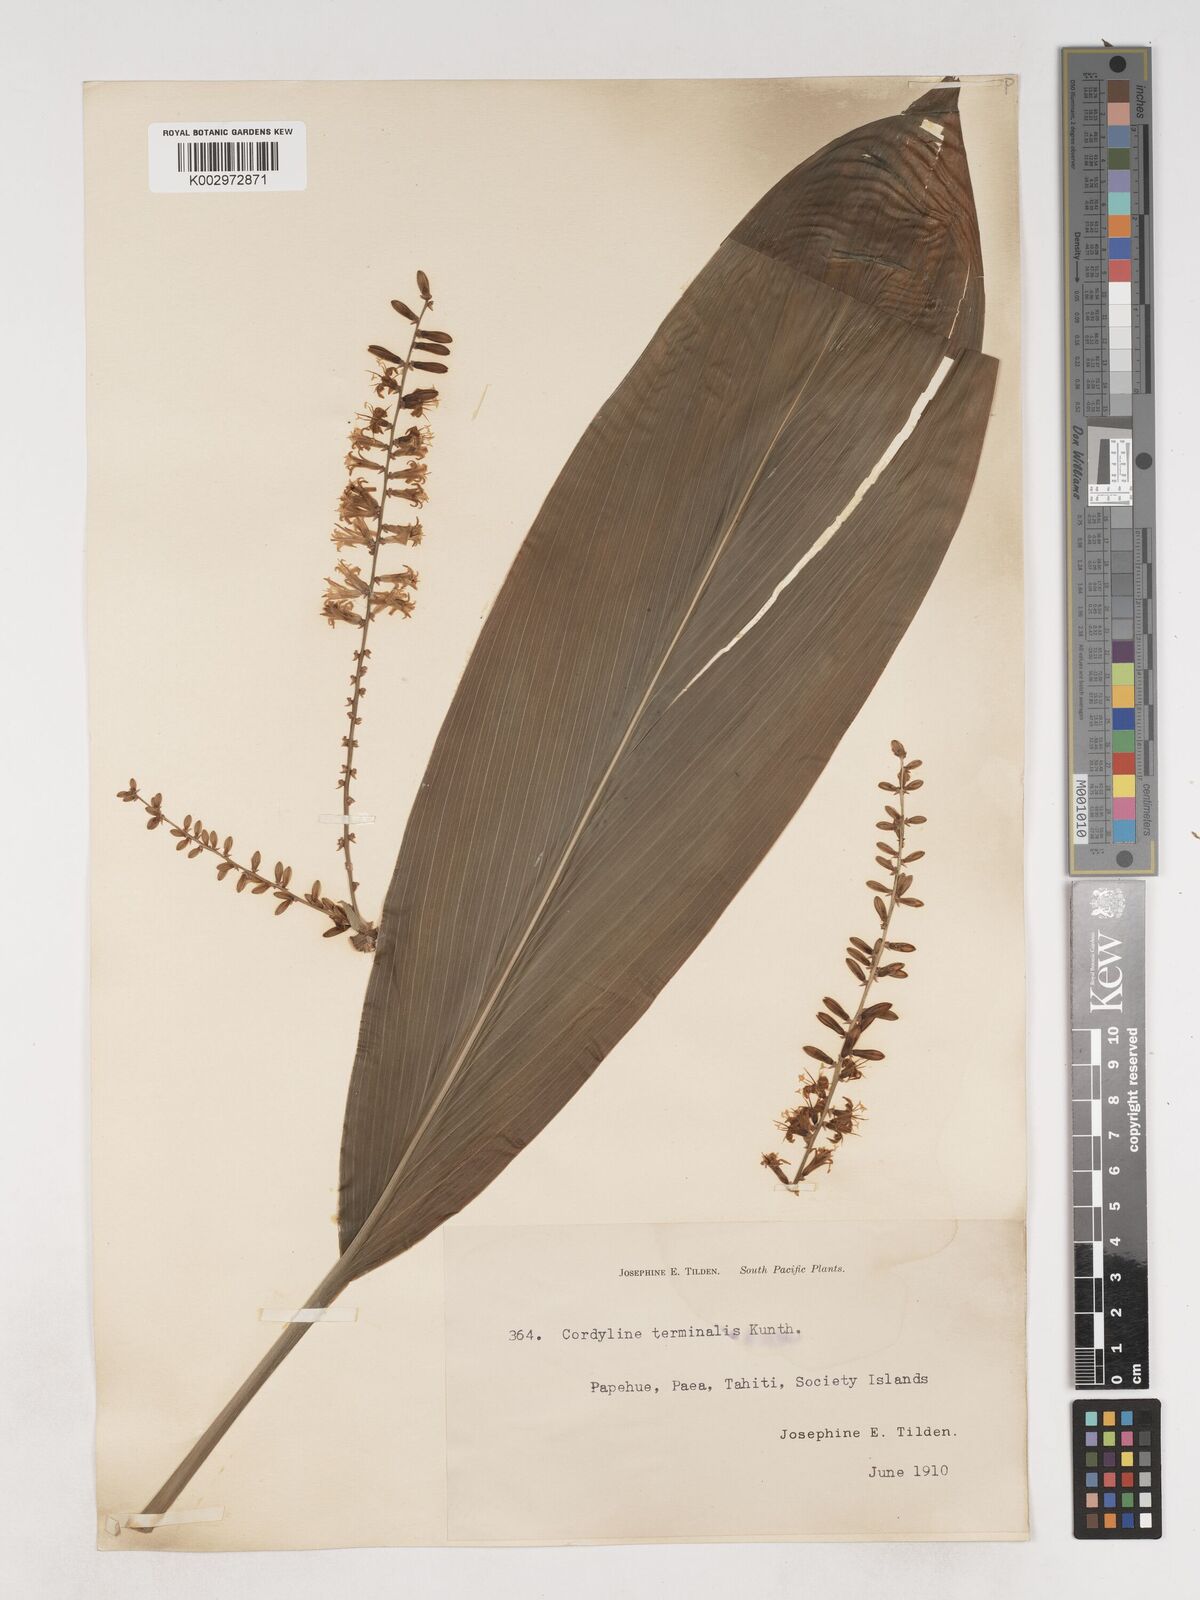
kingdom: Plantae
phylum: Tracheophyta
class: Liliopsida
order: Asparagales
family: Asparagaceae
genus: Cordyline
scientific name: Cordyline fruticosa
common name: Good-luck-plant
